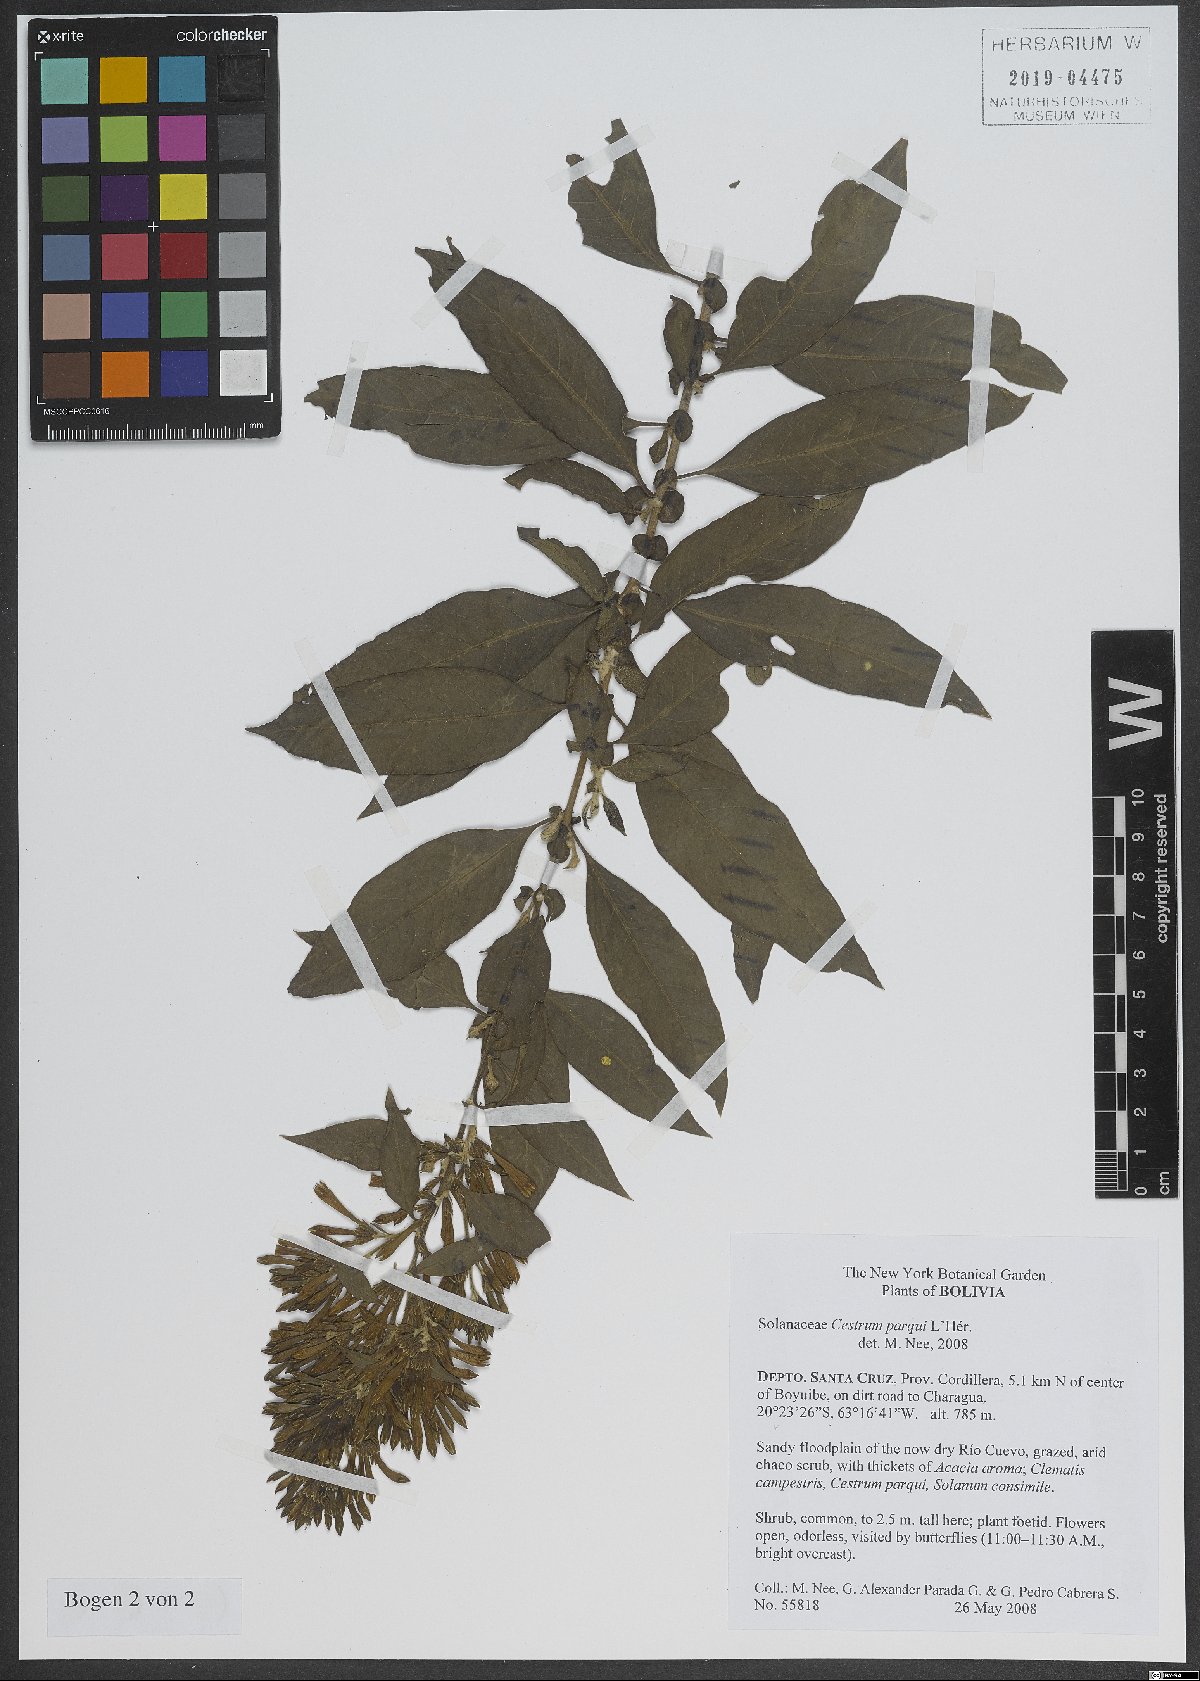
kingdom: Plantae
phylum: Tracheophyta
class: Magnoliopsida
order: Solanales
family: Solanaceae
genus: Cestrum
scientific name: Cestrum thyrsoideum
